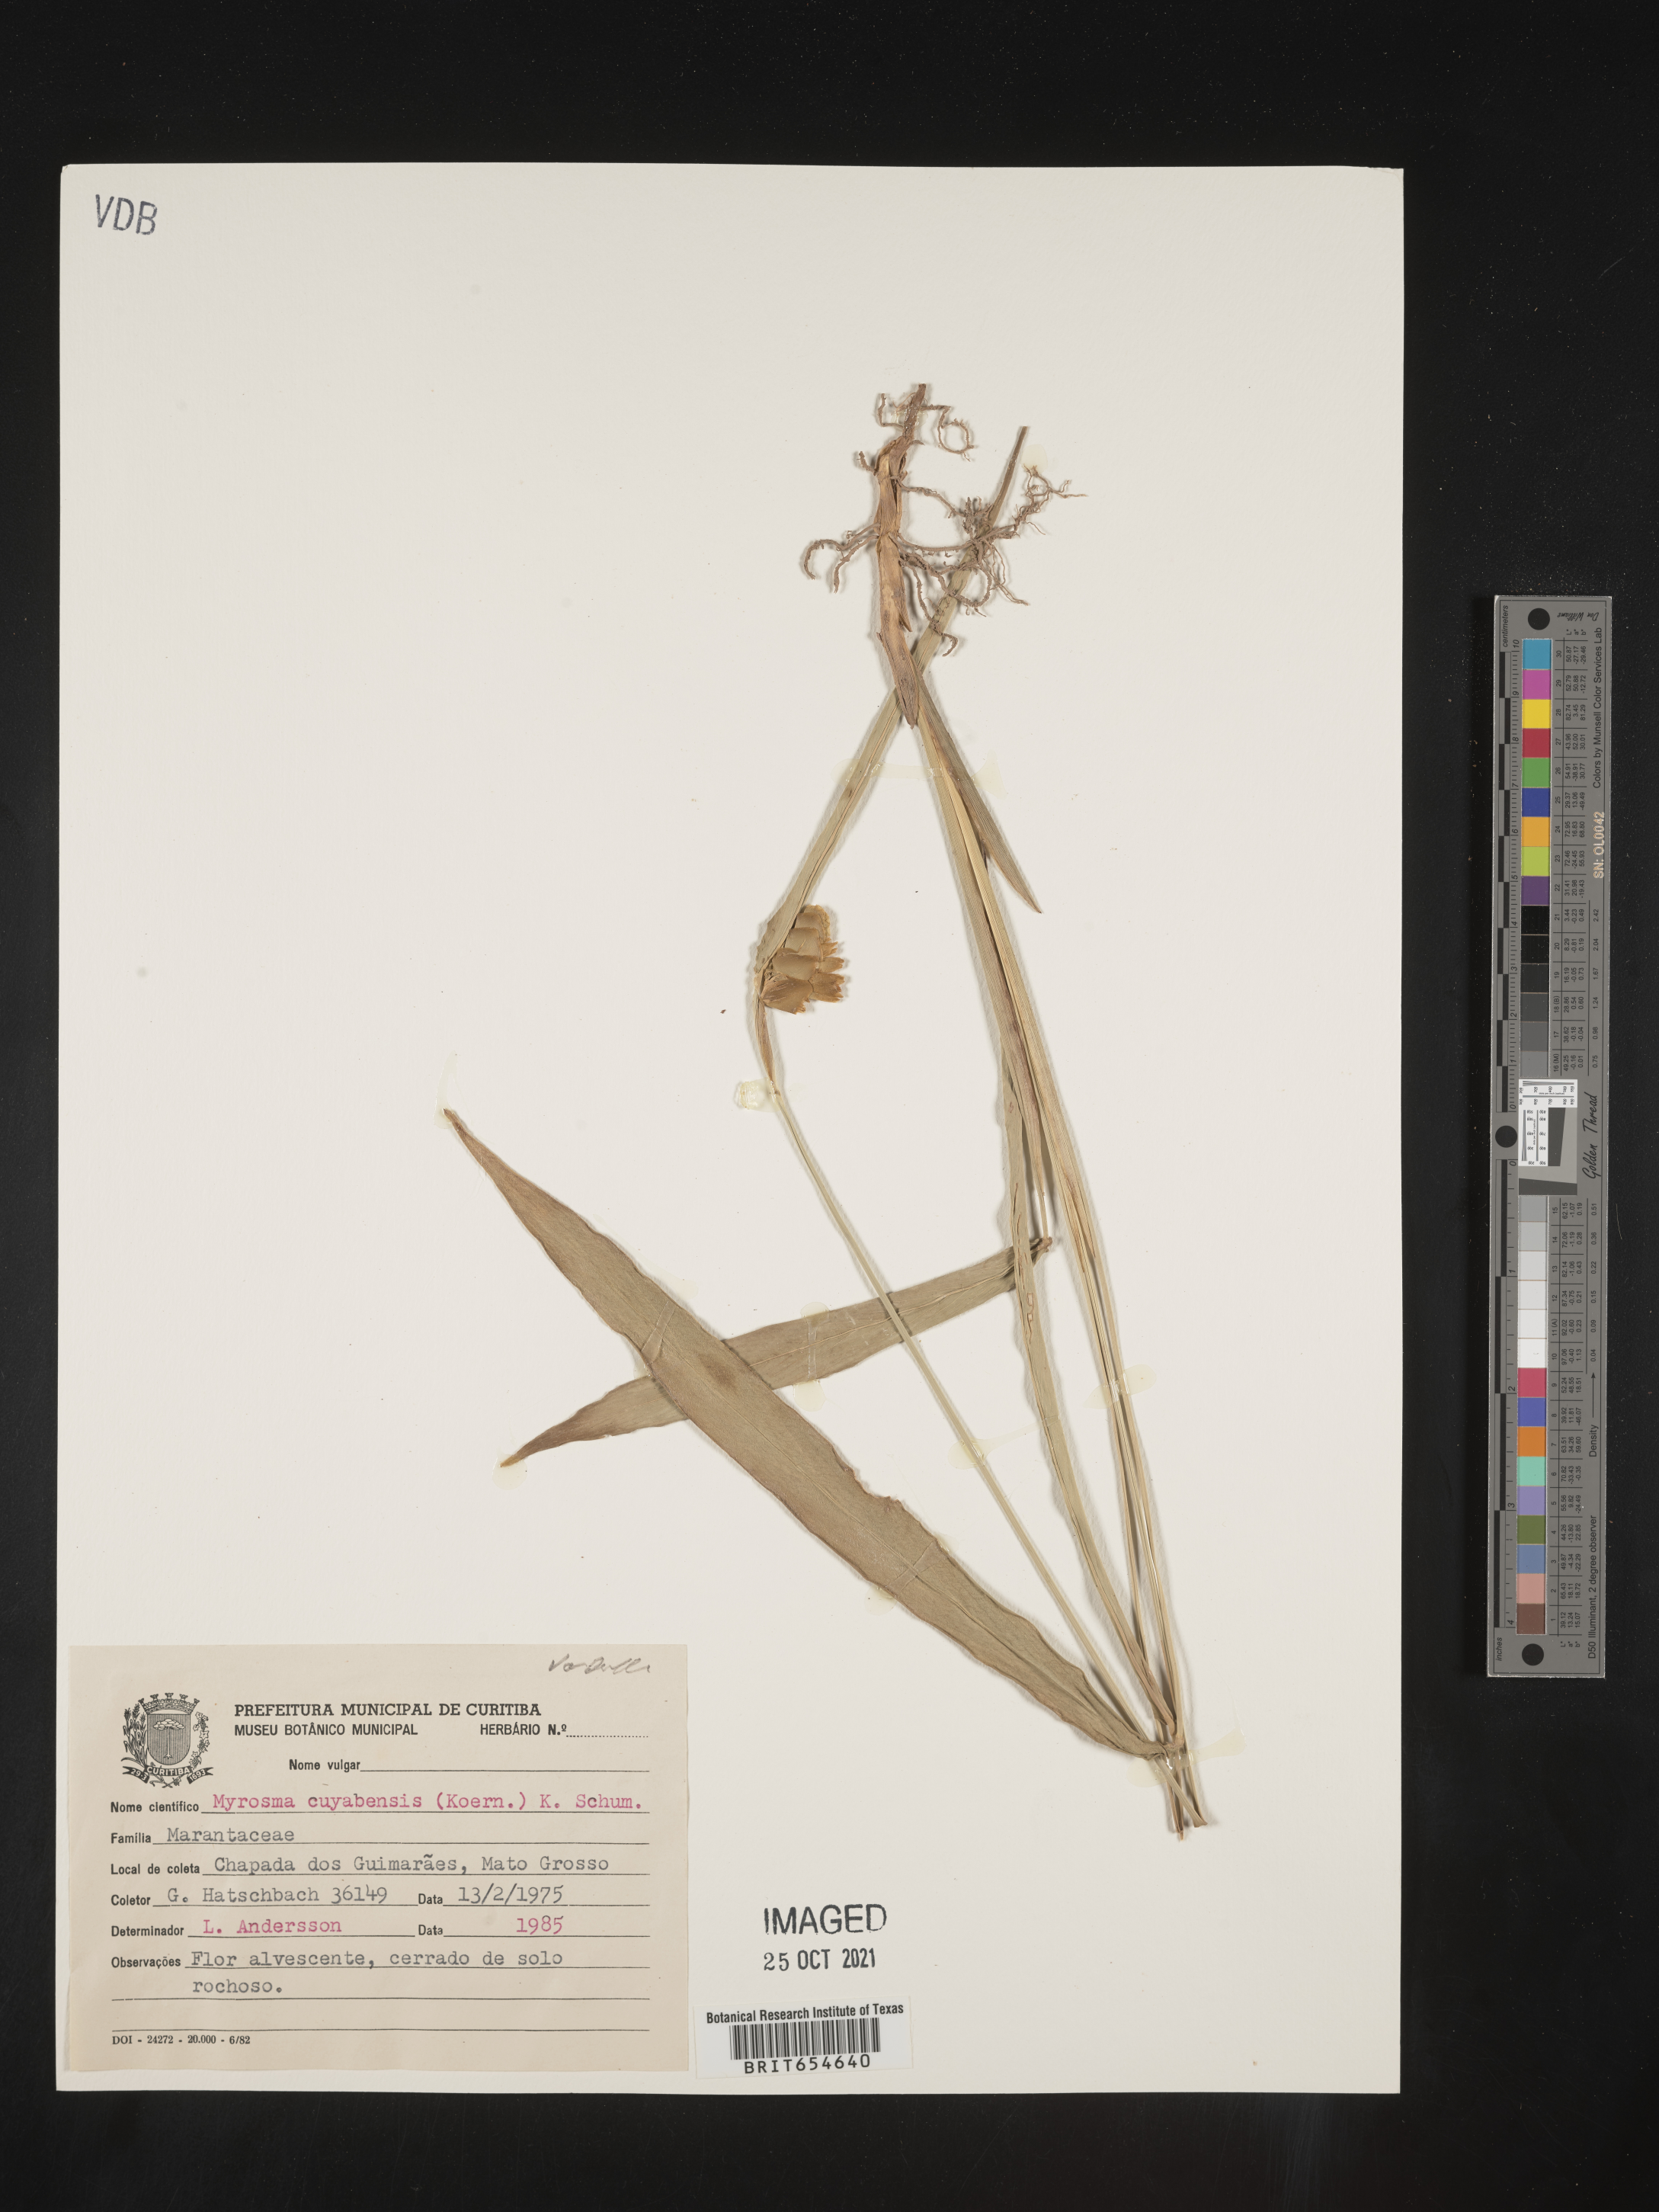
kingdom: Plantae
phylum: Tracheophyta
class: Liliopsida
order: Zingiberales
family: Marantaceae
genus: Myrosma
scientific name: Myrosma
